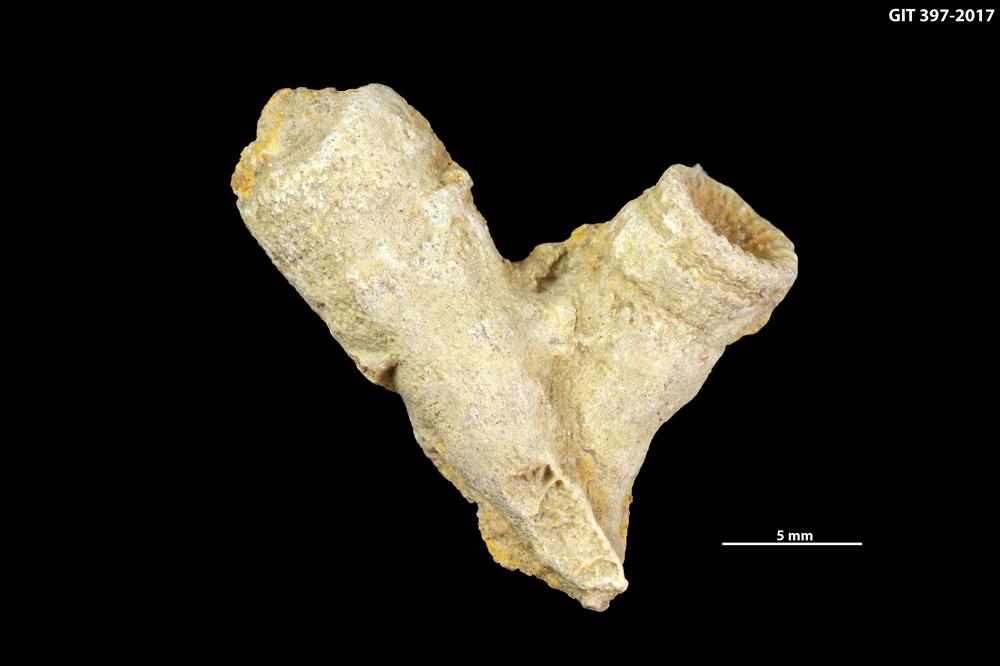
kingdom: Animalia
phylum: Cnidaria
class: Anthozoa
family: Cystiphyllidae
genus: Microplasma
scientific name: Microplasma
